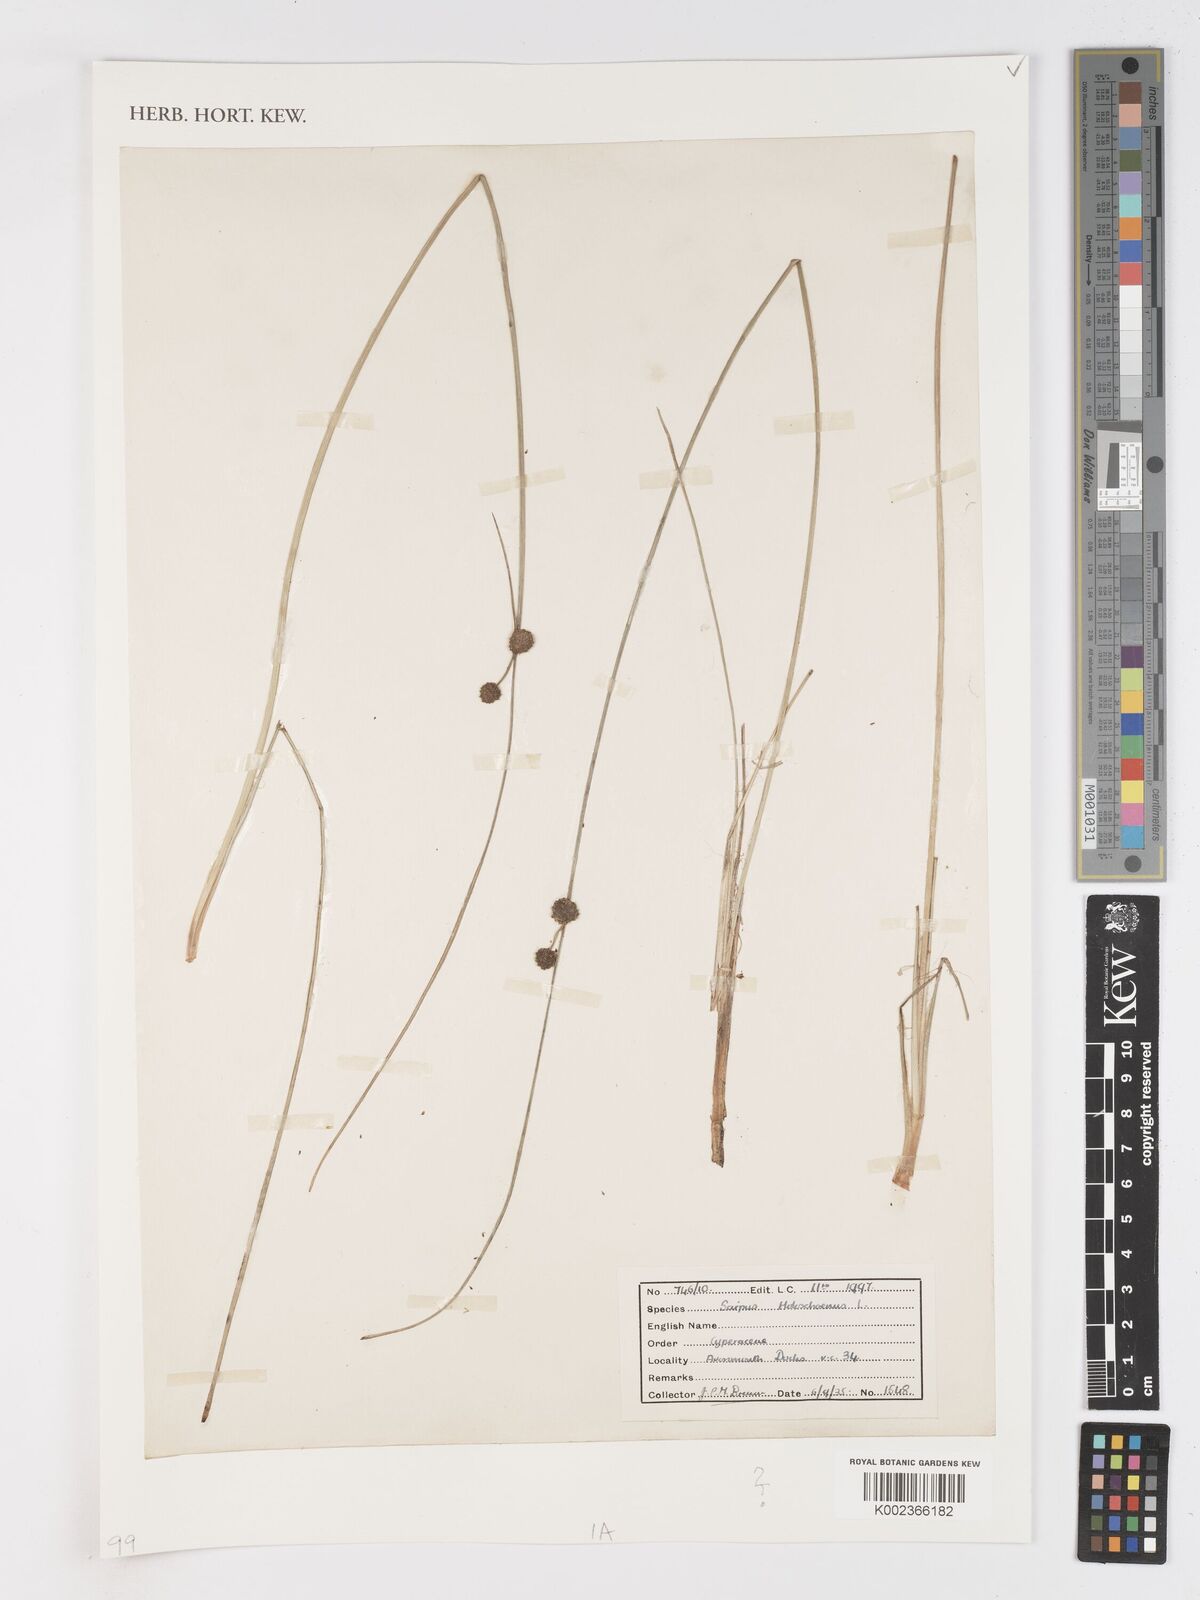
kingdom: Plantae
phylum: Tracheophyta
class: Liliopsida
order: Poales
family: Cyperaceae
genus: Scirpoides
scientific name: Scirpoides holoschoenus
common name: Round-headed club-rush
